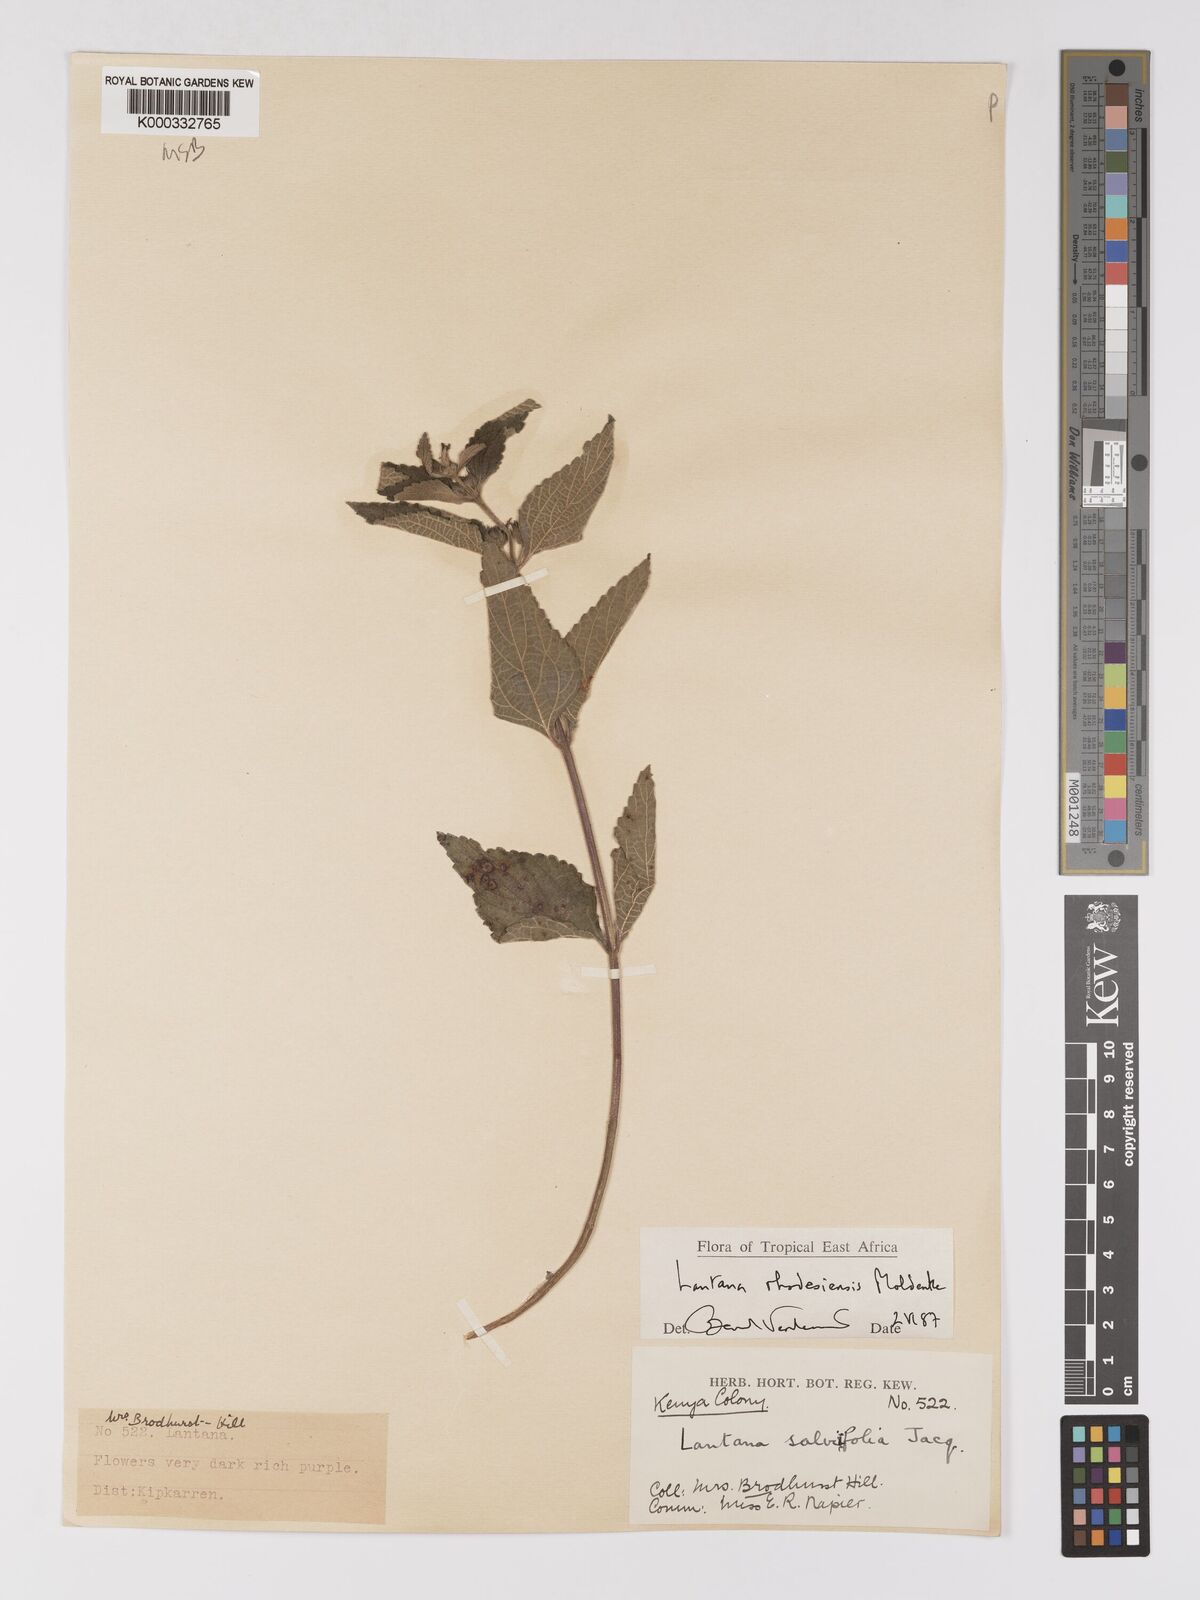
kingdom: Plantae
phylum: Tracheophyta
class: Magnoliopsida
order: Lamiales
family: Verbenaceae
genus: Lantana
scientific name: Lantana ukambensis
